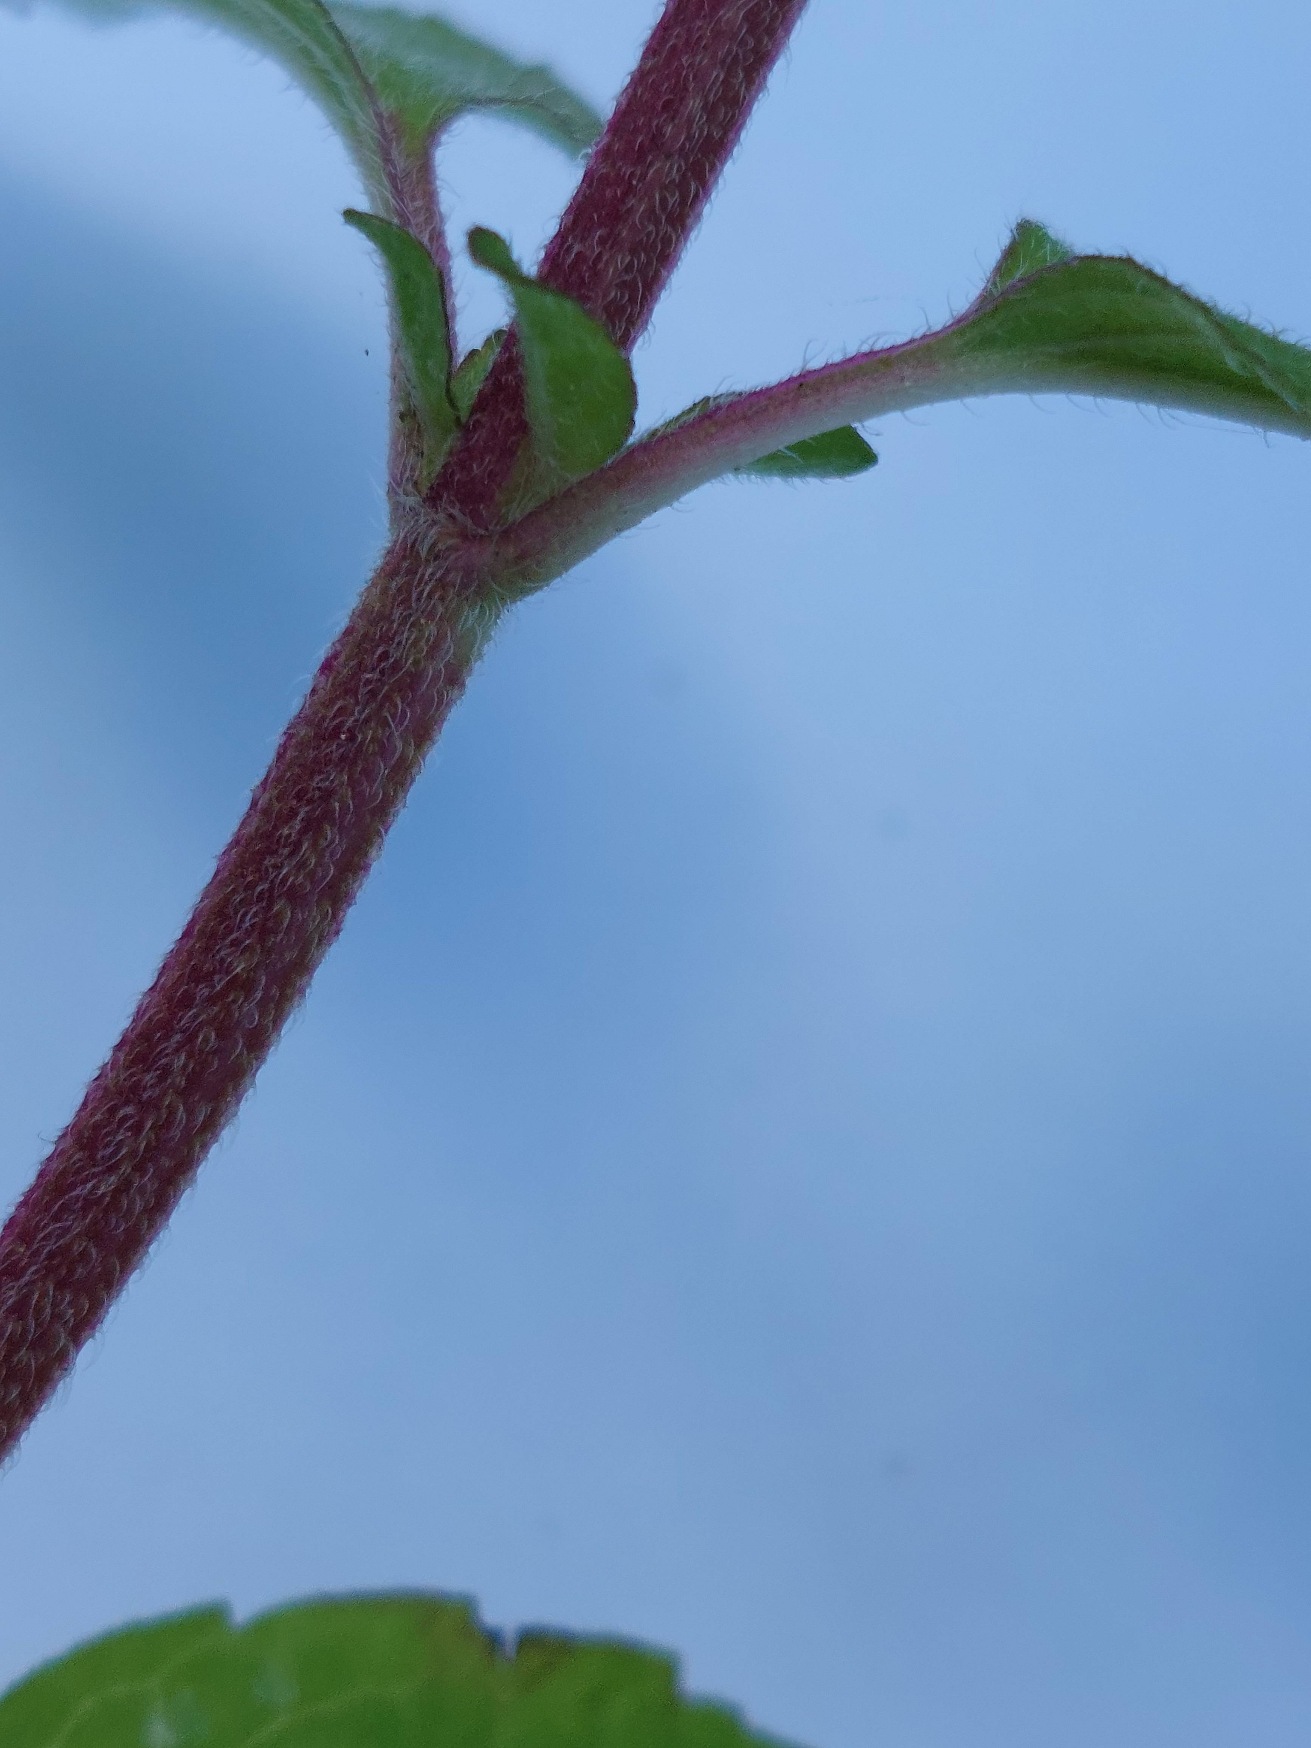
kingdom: Plantae
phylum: Tracheophyta
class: Magnoliopsida
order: Lamiales
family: Lamiaceae
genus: Mentha
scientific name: Mentha aquatica
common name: Vand-mynte
